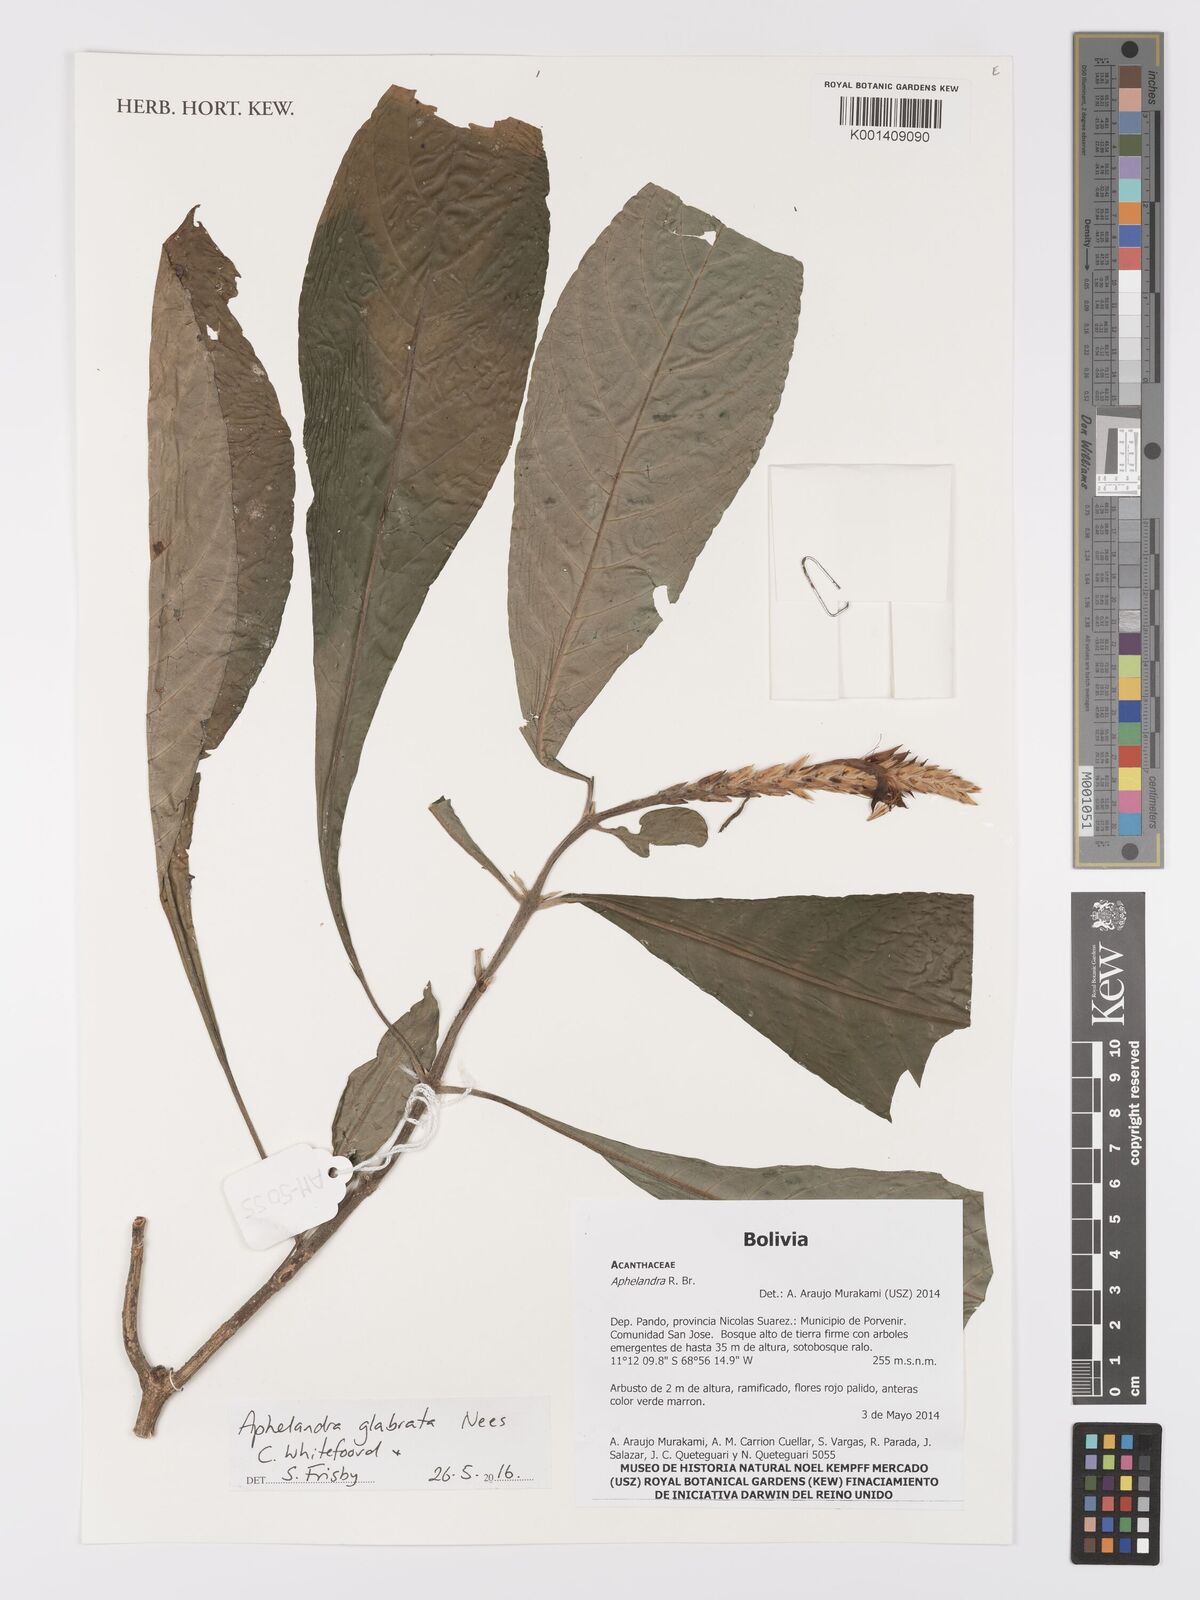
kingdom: Plantae
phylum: Tracheophyta
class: Magnoliopsida
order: Lamiales
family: Acanthaceae
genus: Aphelandra
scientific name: Aphelandra glabrata
